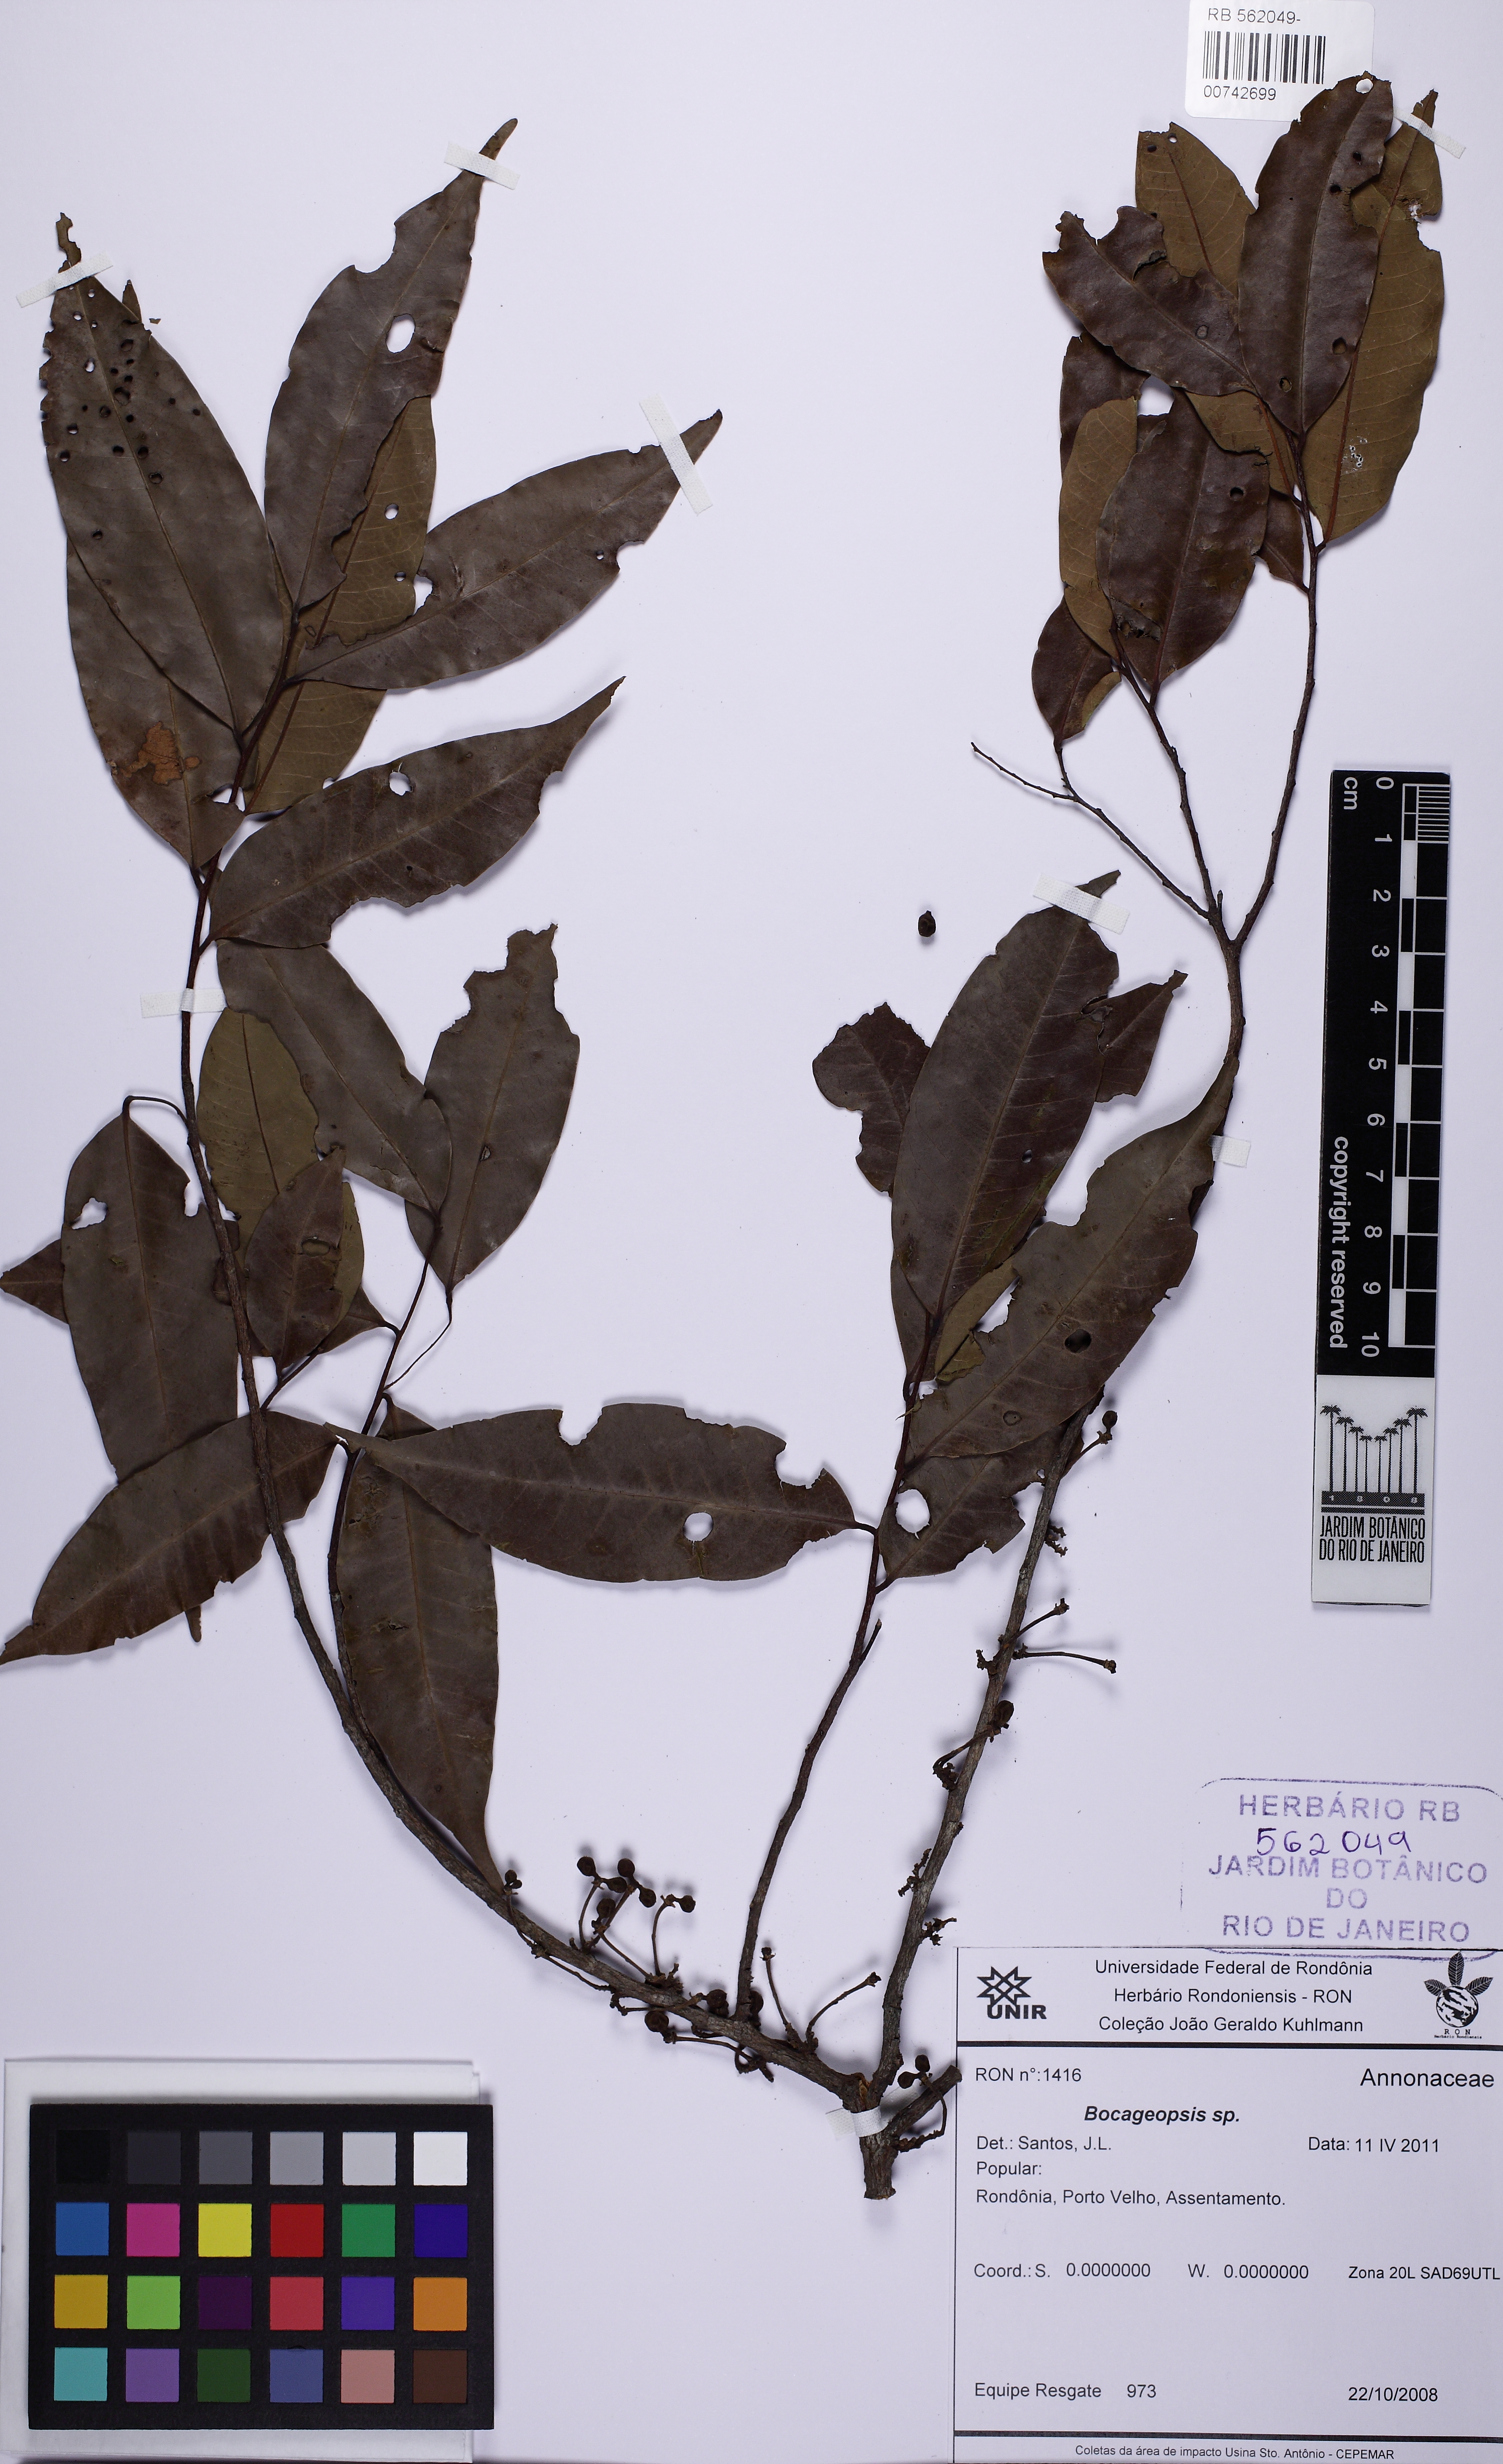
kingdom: Plantae
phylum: Tracheophyta
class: Magnoliopsida
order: Magnoliales
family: Annonaceae
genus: Bocageopsis
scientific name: Bocageopsis multiflora
